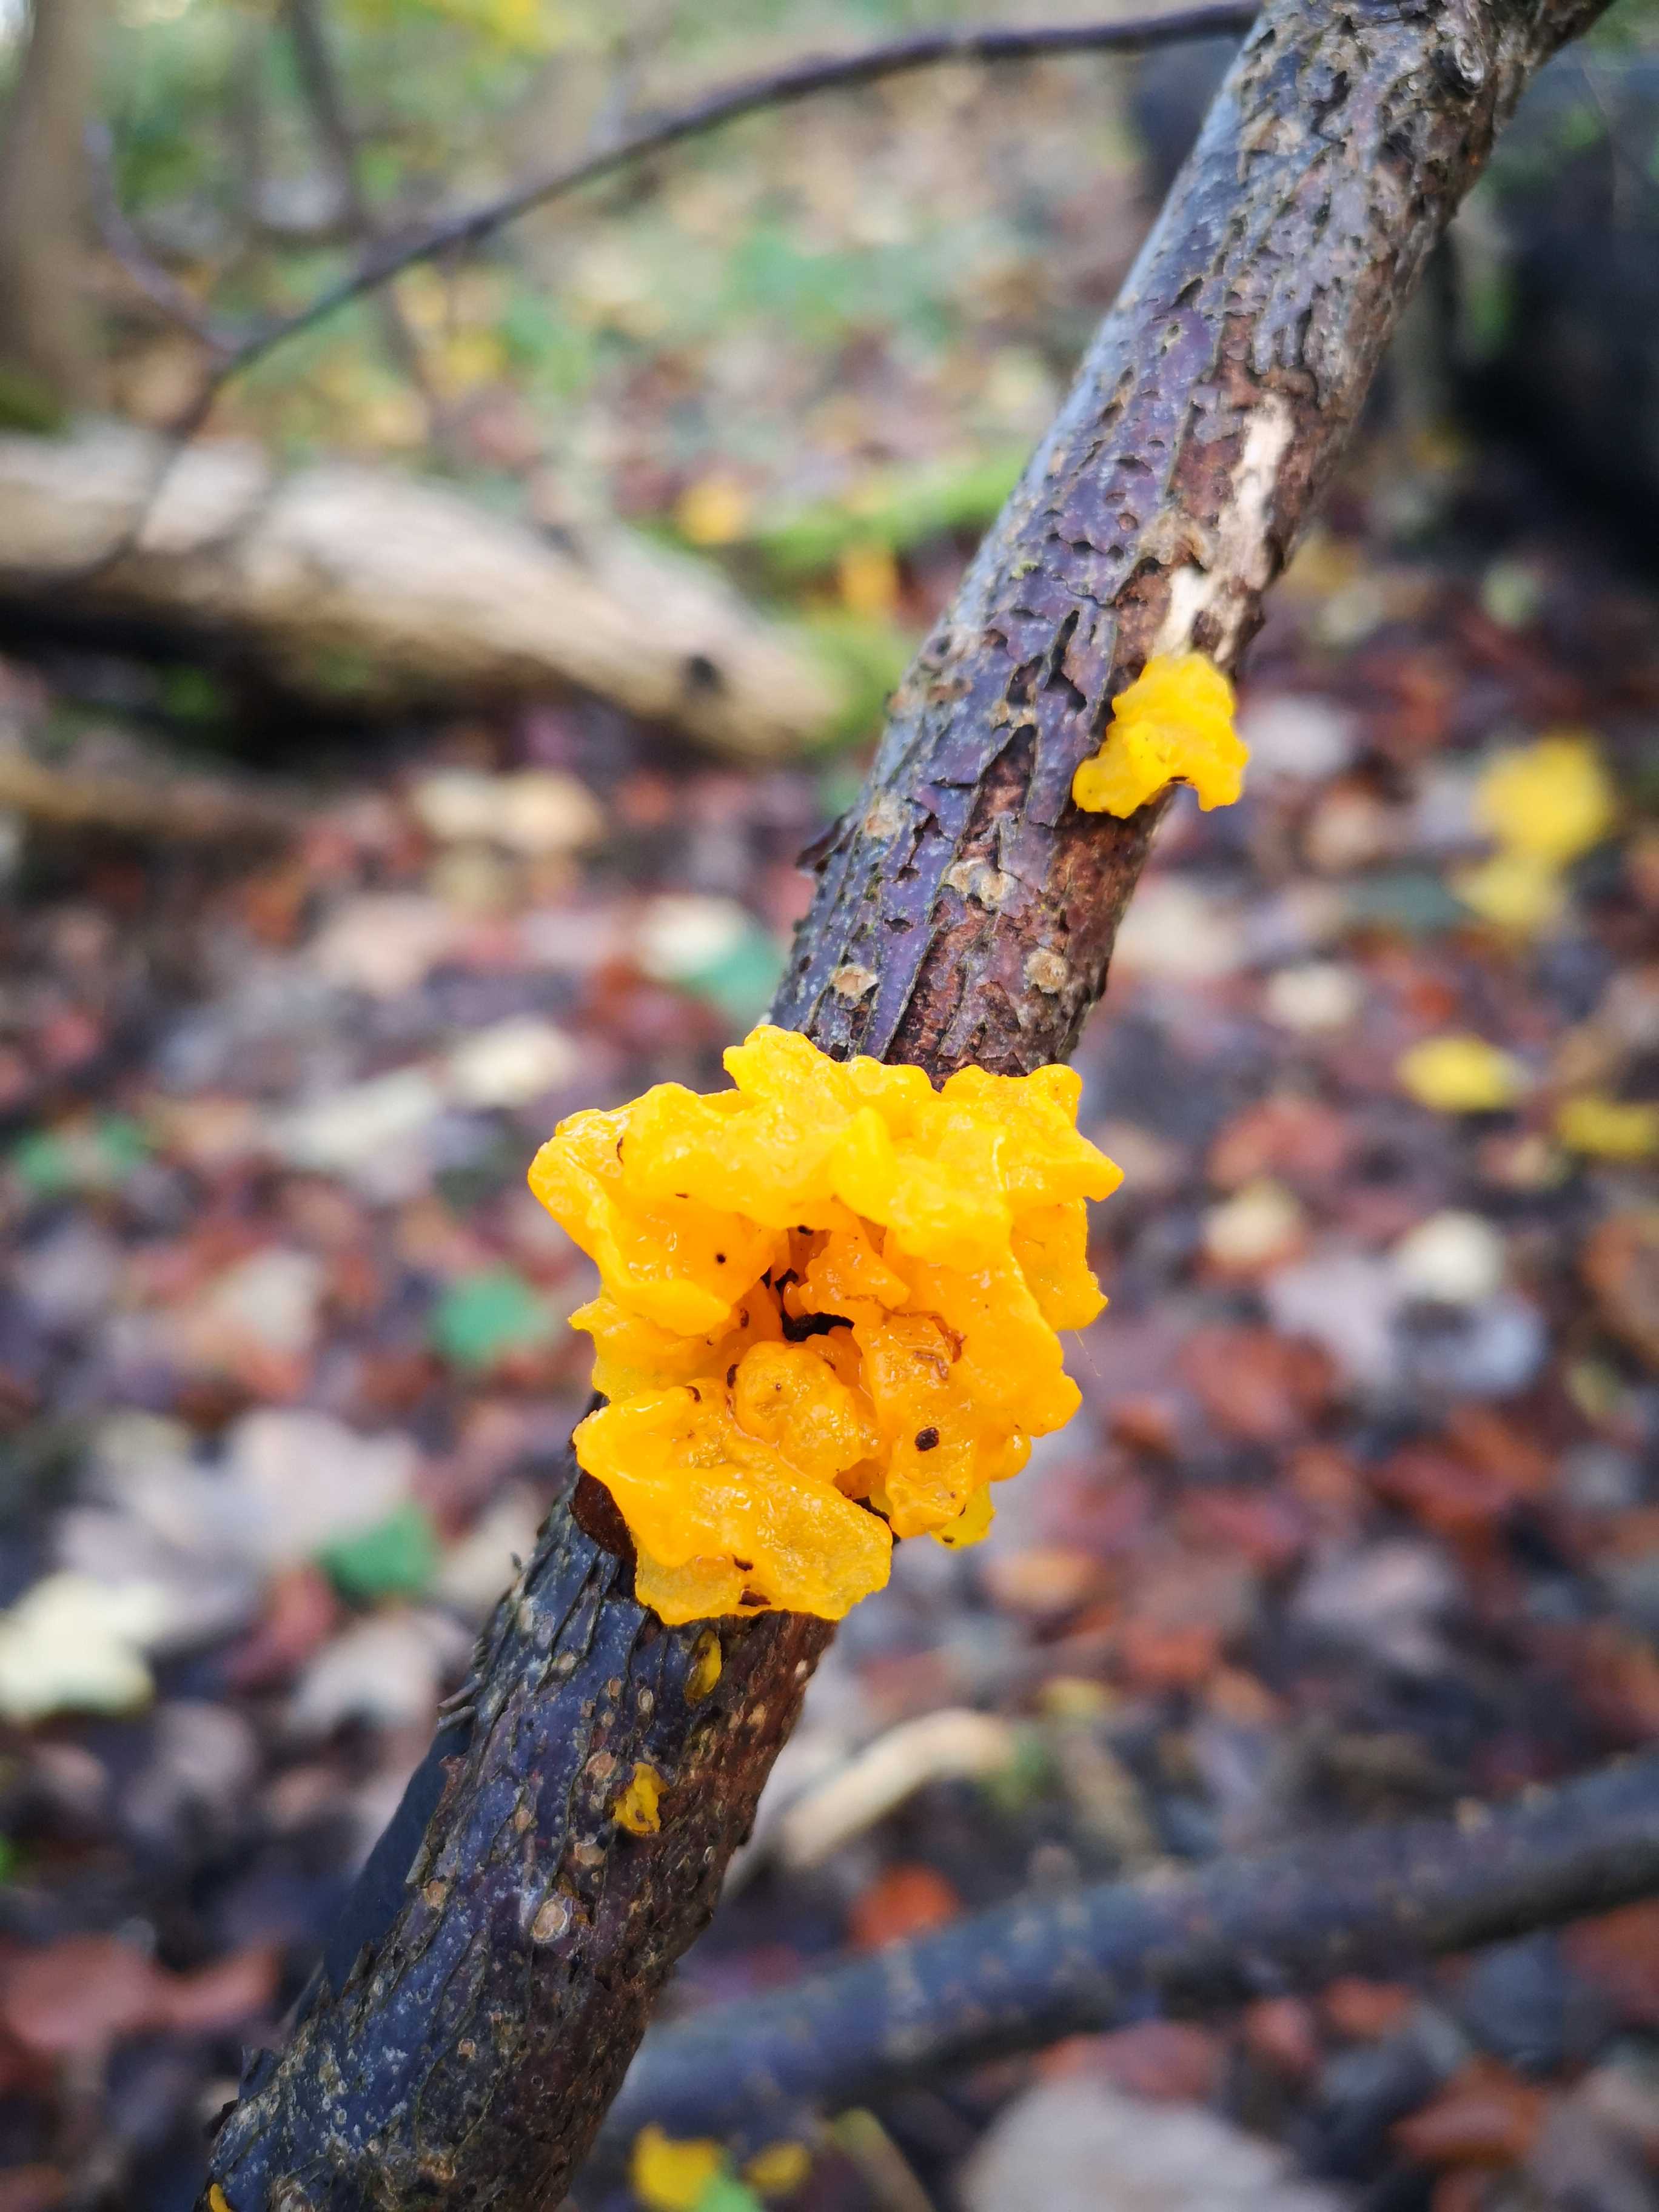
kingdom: Fungi
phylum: Basidiomycota
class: Tremellomycetes
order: Tremellales
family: Tremellaceae
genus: Tremella
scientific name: Tremella mesenterica
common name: gul bævresvamp
